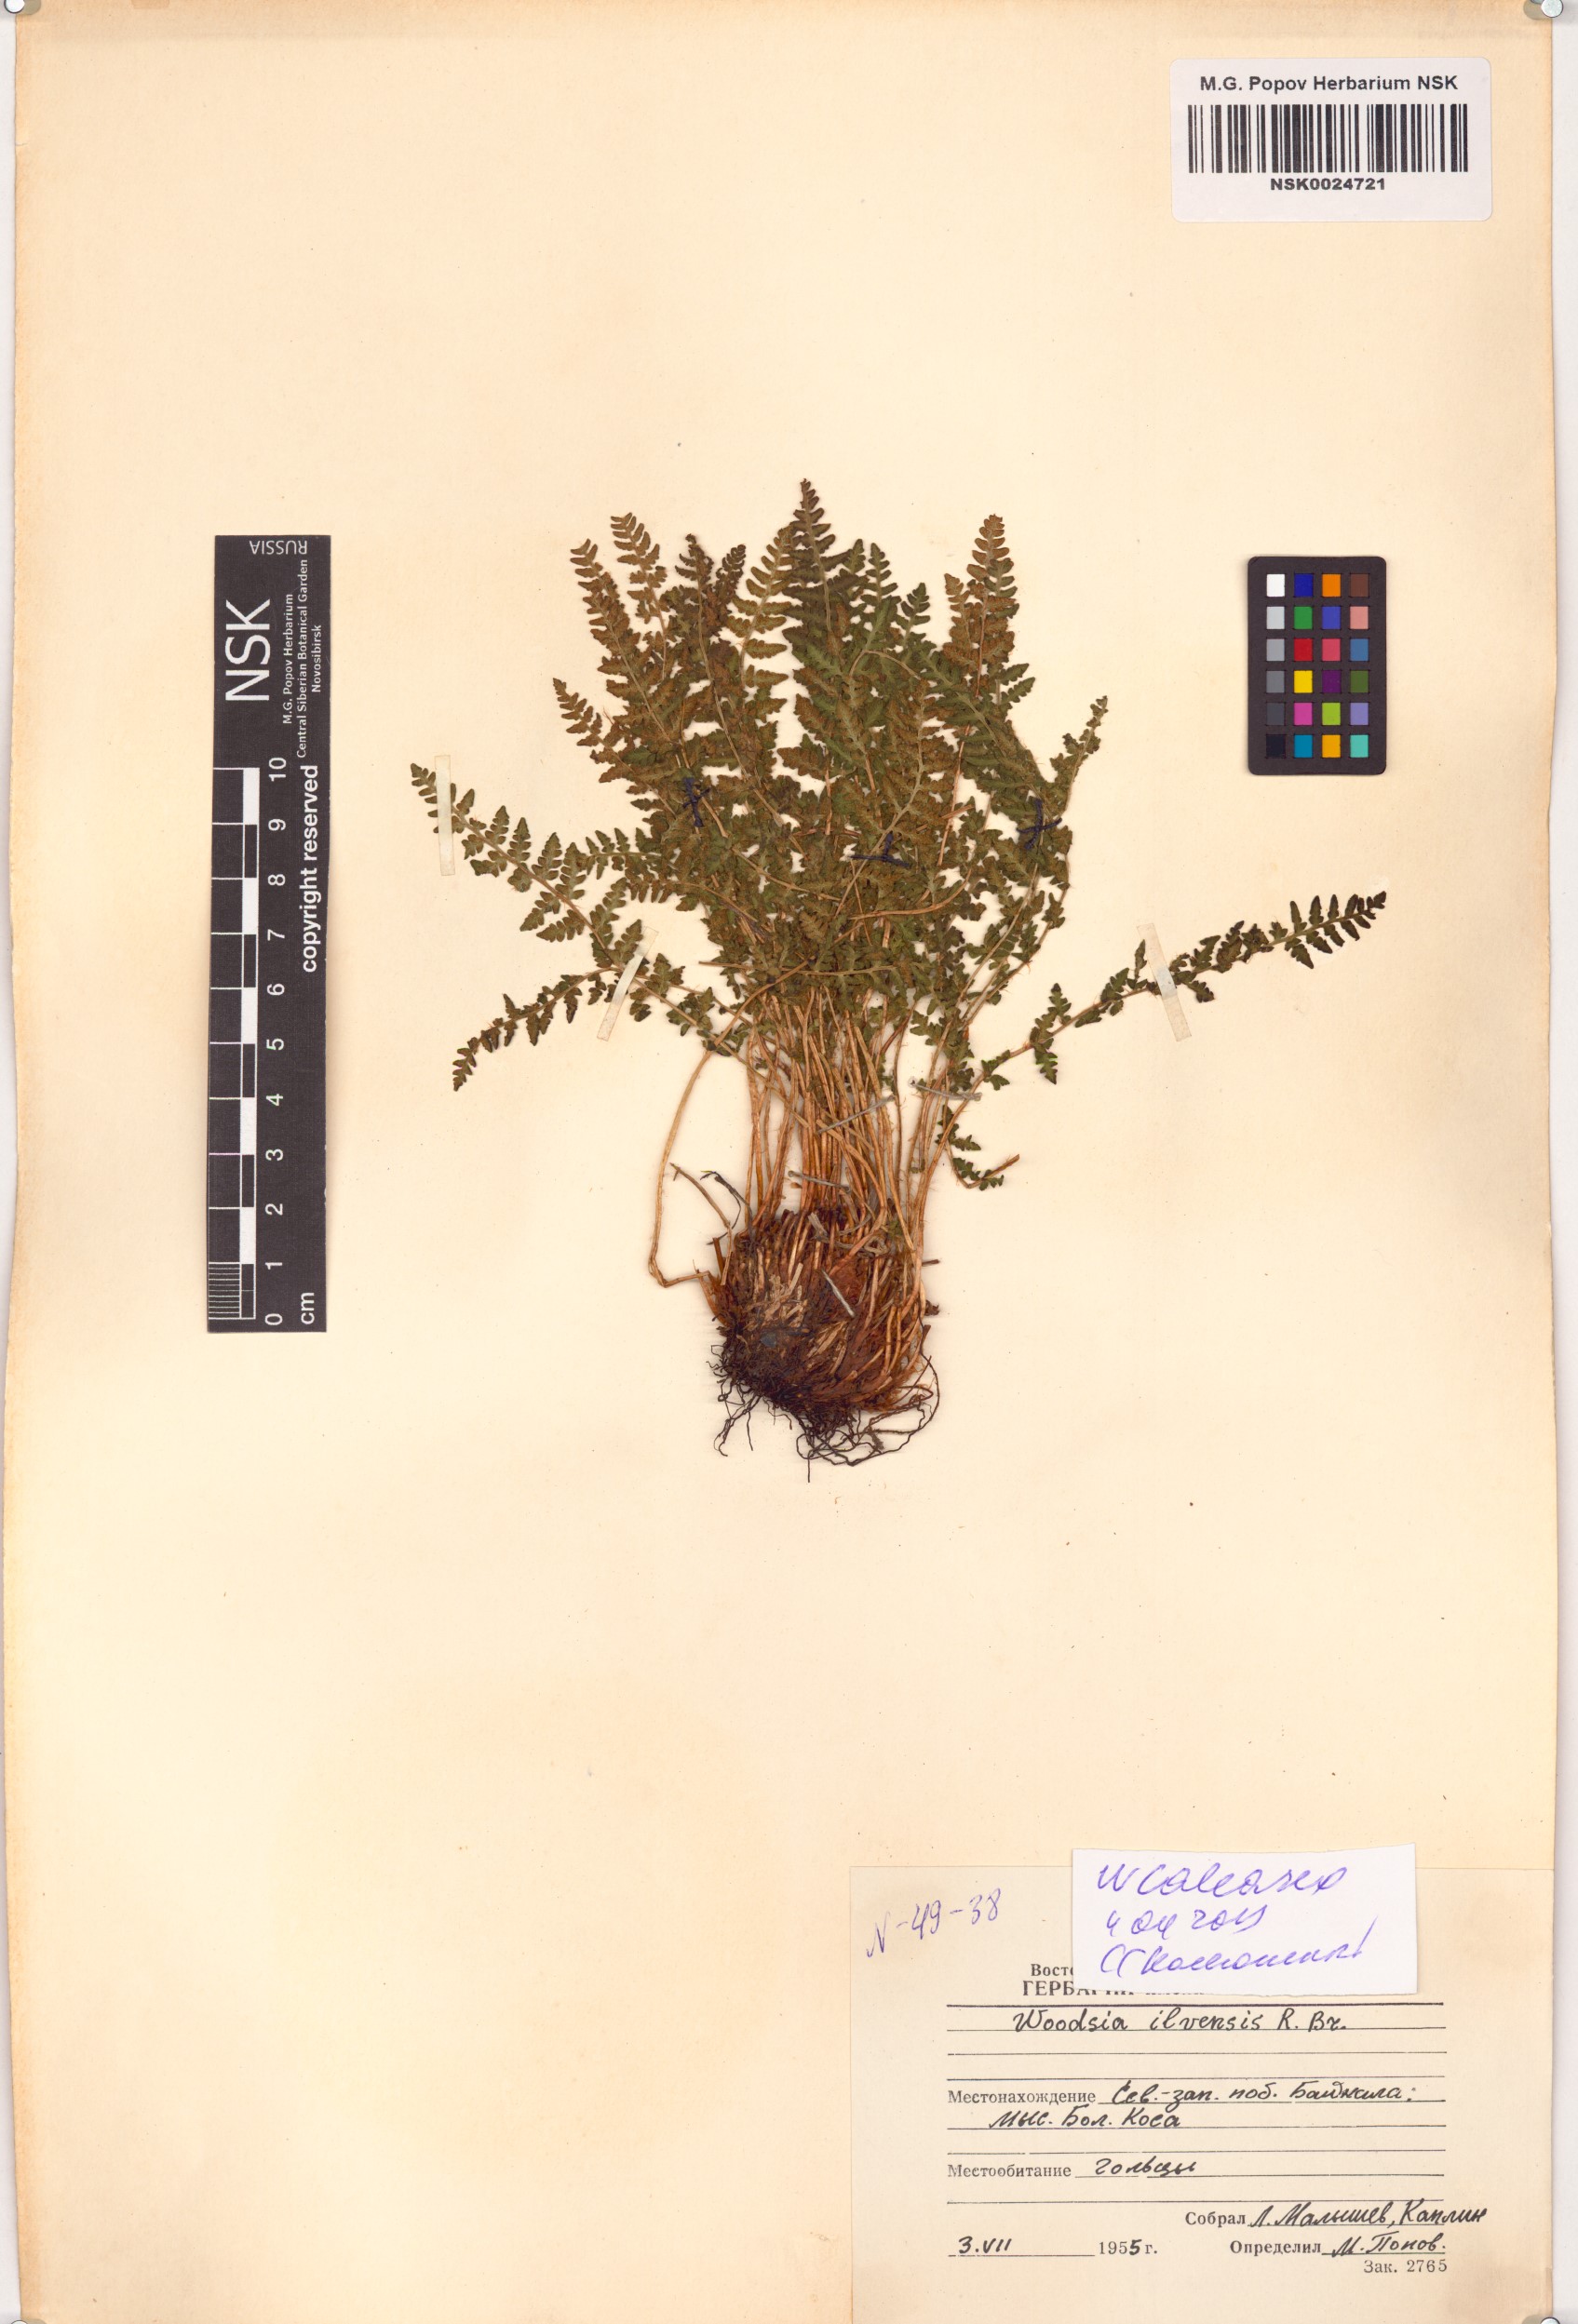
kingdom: Plantae
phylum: Tracheophyta
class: Polypodiopsida
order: Polypodiales
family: Woodsiaceae
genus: Woodsia
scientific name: Woodsia calcarea
